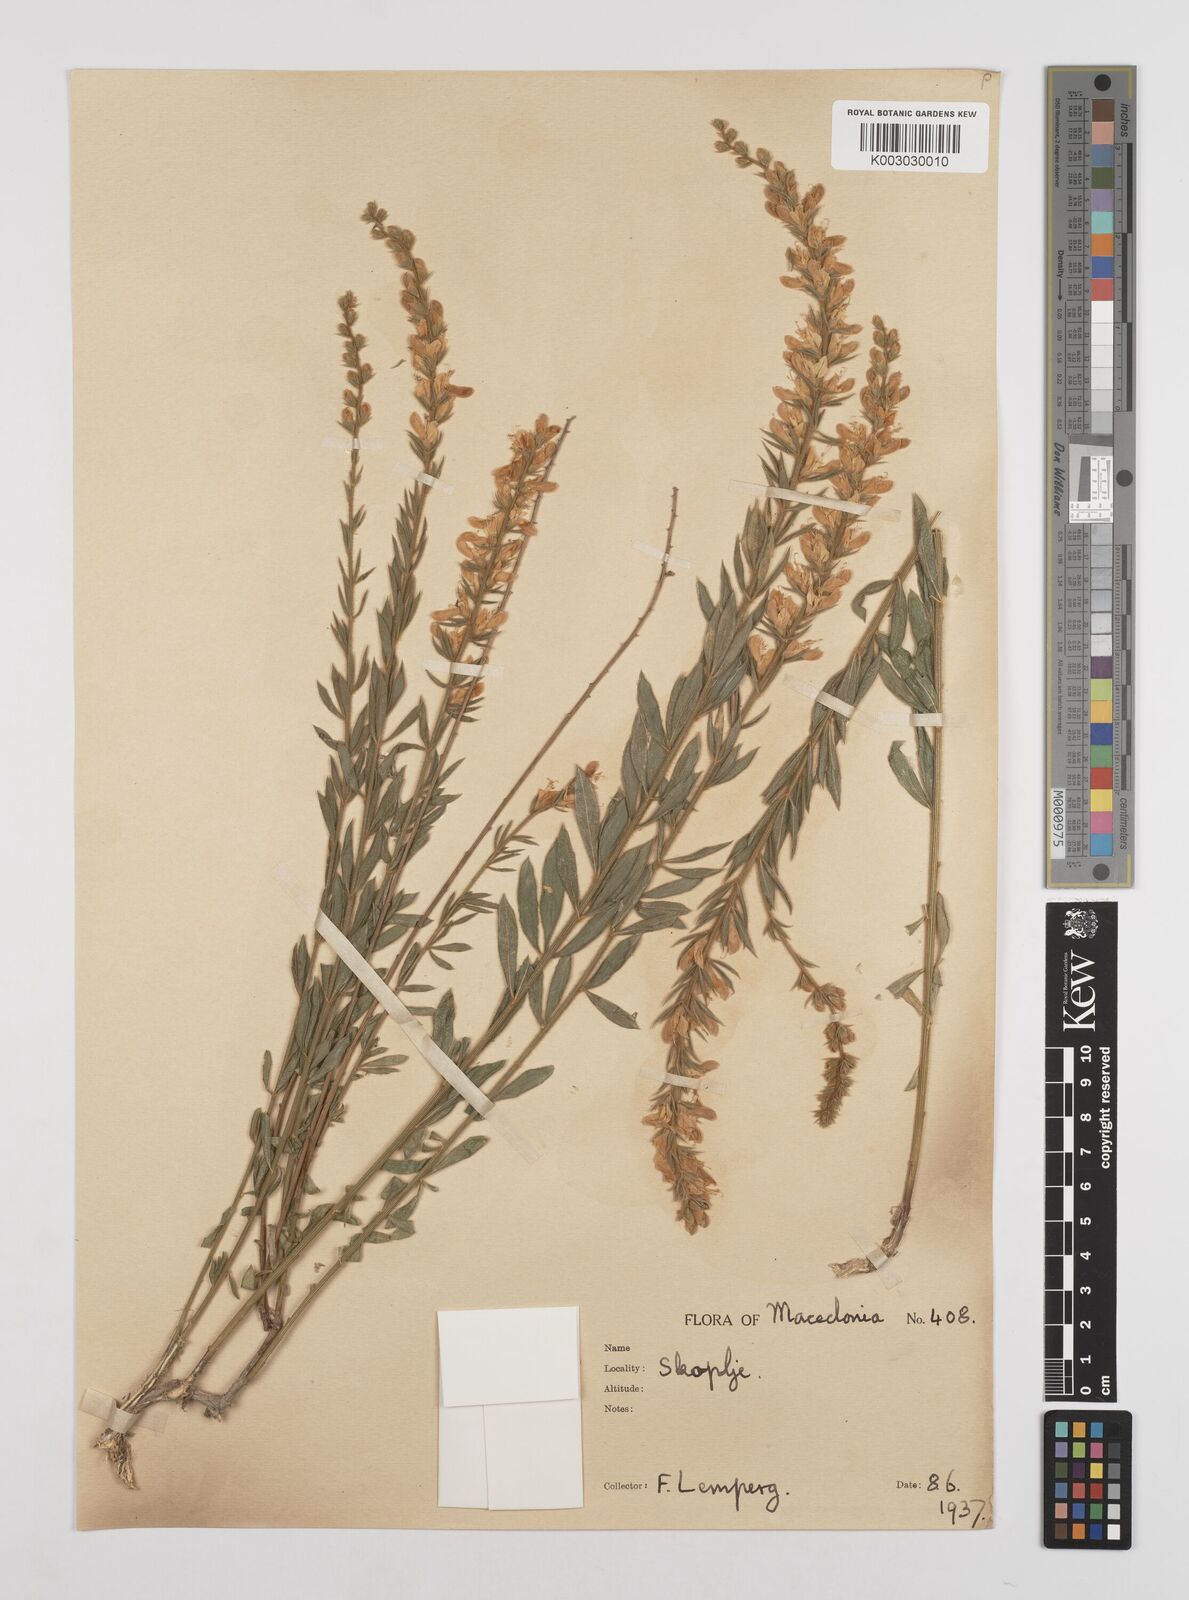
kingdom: Plantae
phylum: Tracheophyta
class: Magnoliopsida
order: Fabales
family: Fabaceae
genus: Genista
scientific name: Genista nissana
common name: Macedonian broom
